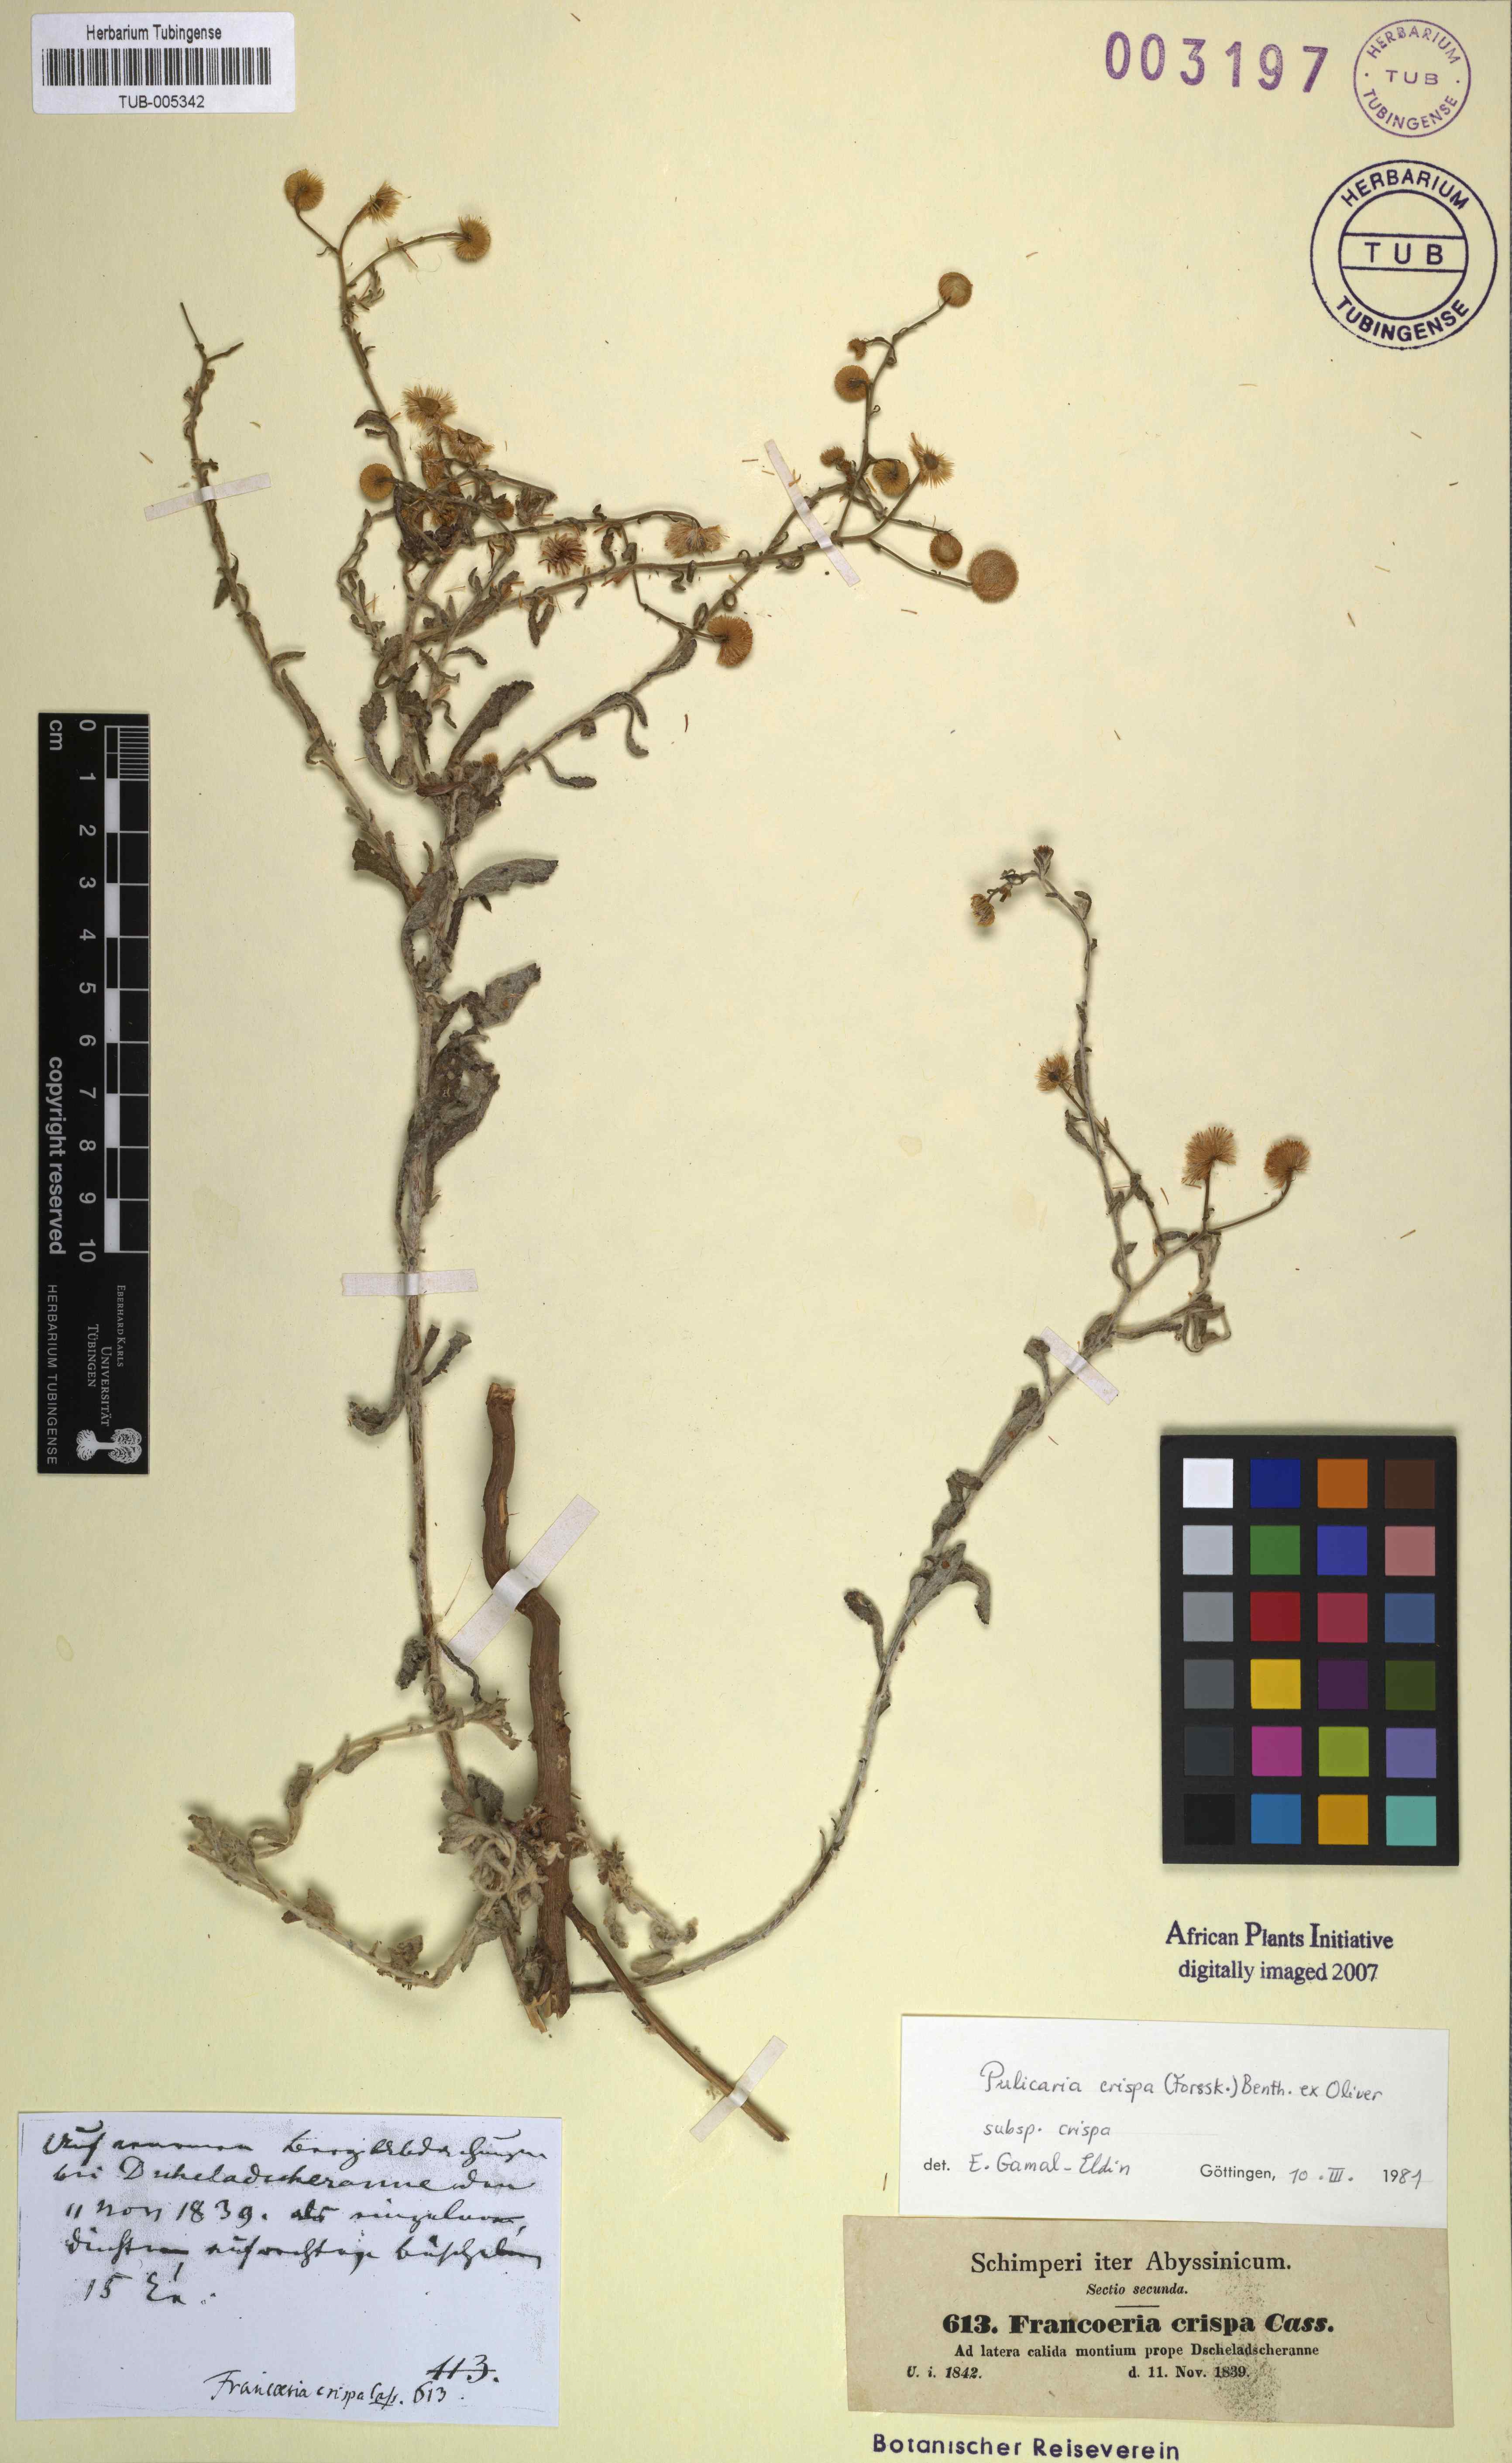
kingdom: Plantae
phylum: Tracheophyta
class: Magnoliopsida
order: Asterales
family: Asteraceae
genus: Pulicaria
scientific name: Pulicaria undulata
